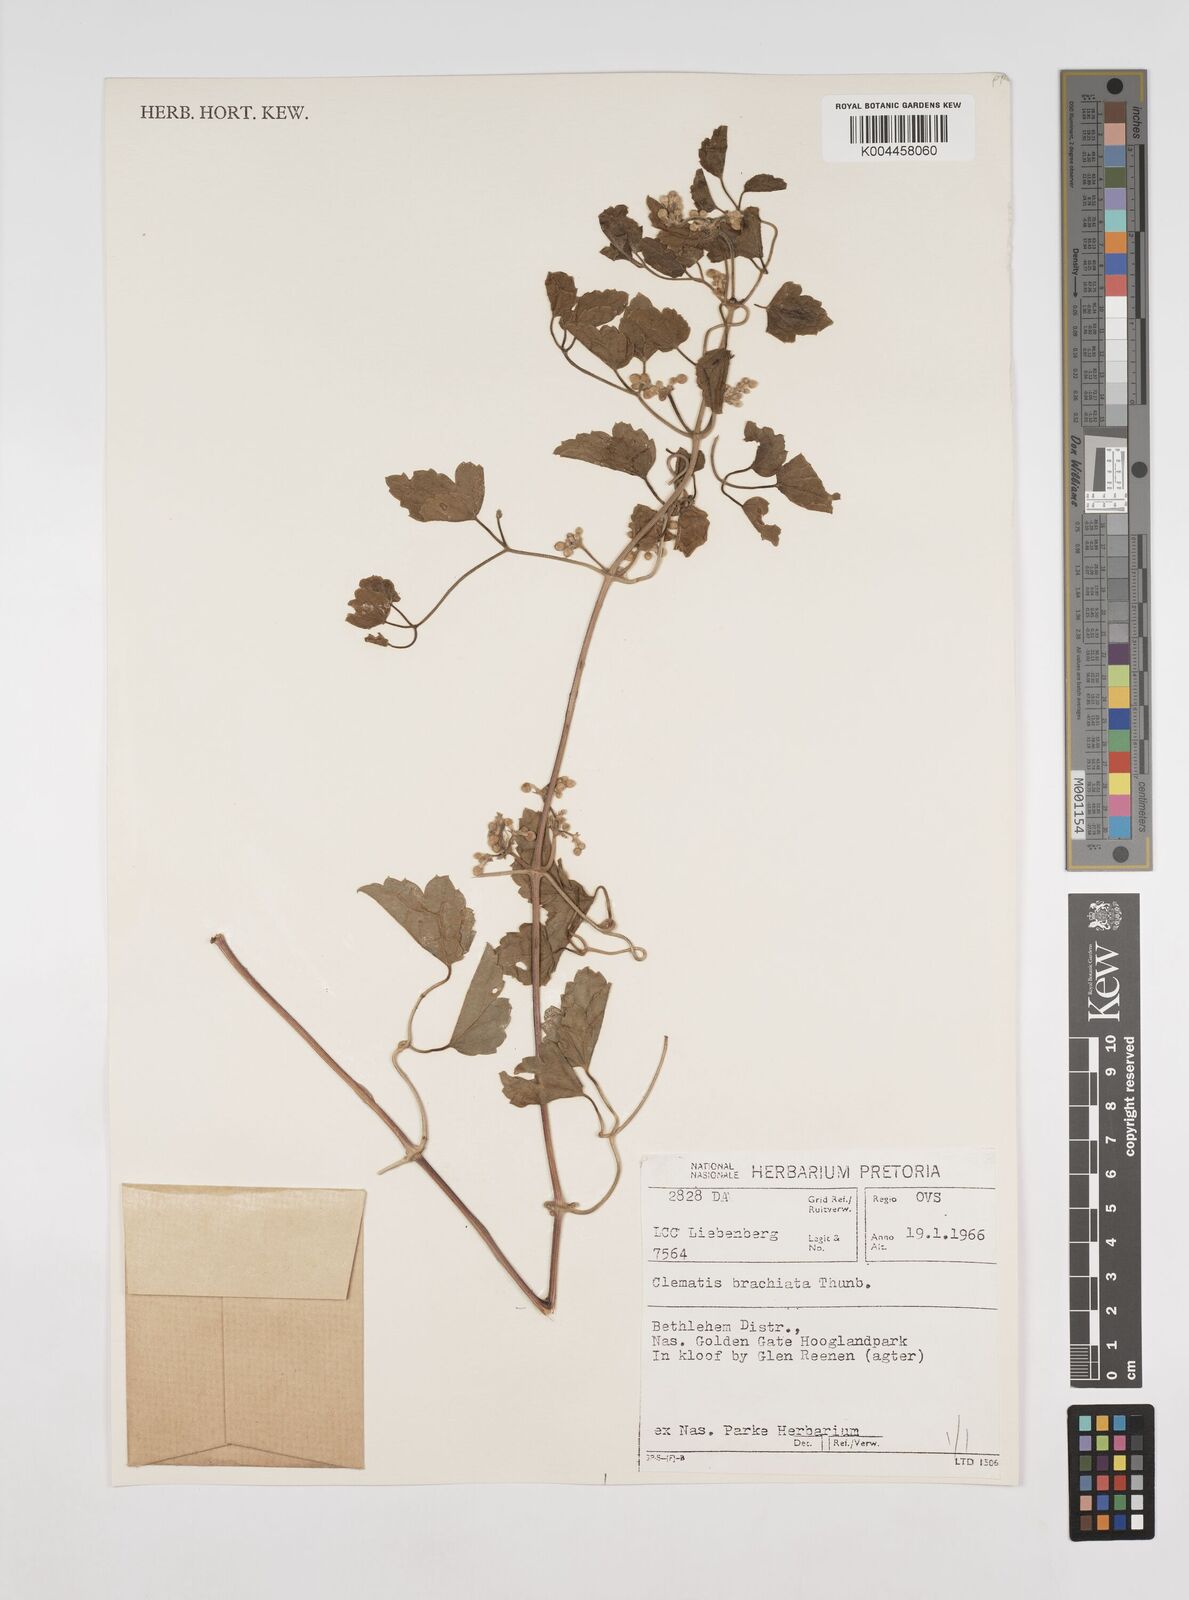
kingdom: Plantae
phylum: Tracheophyta
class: Magnoliopsida
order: Ranunculales
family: Ranunculaceae
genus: Clematis
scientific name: Clematis brachiata
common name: Traveler's-joy
